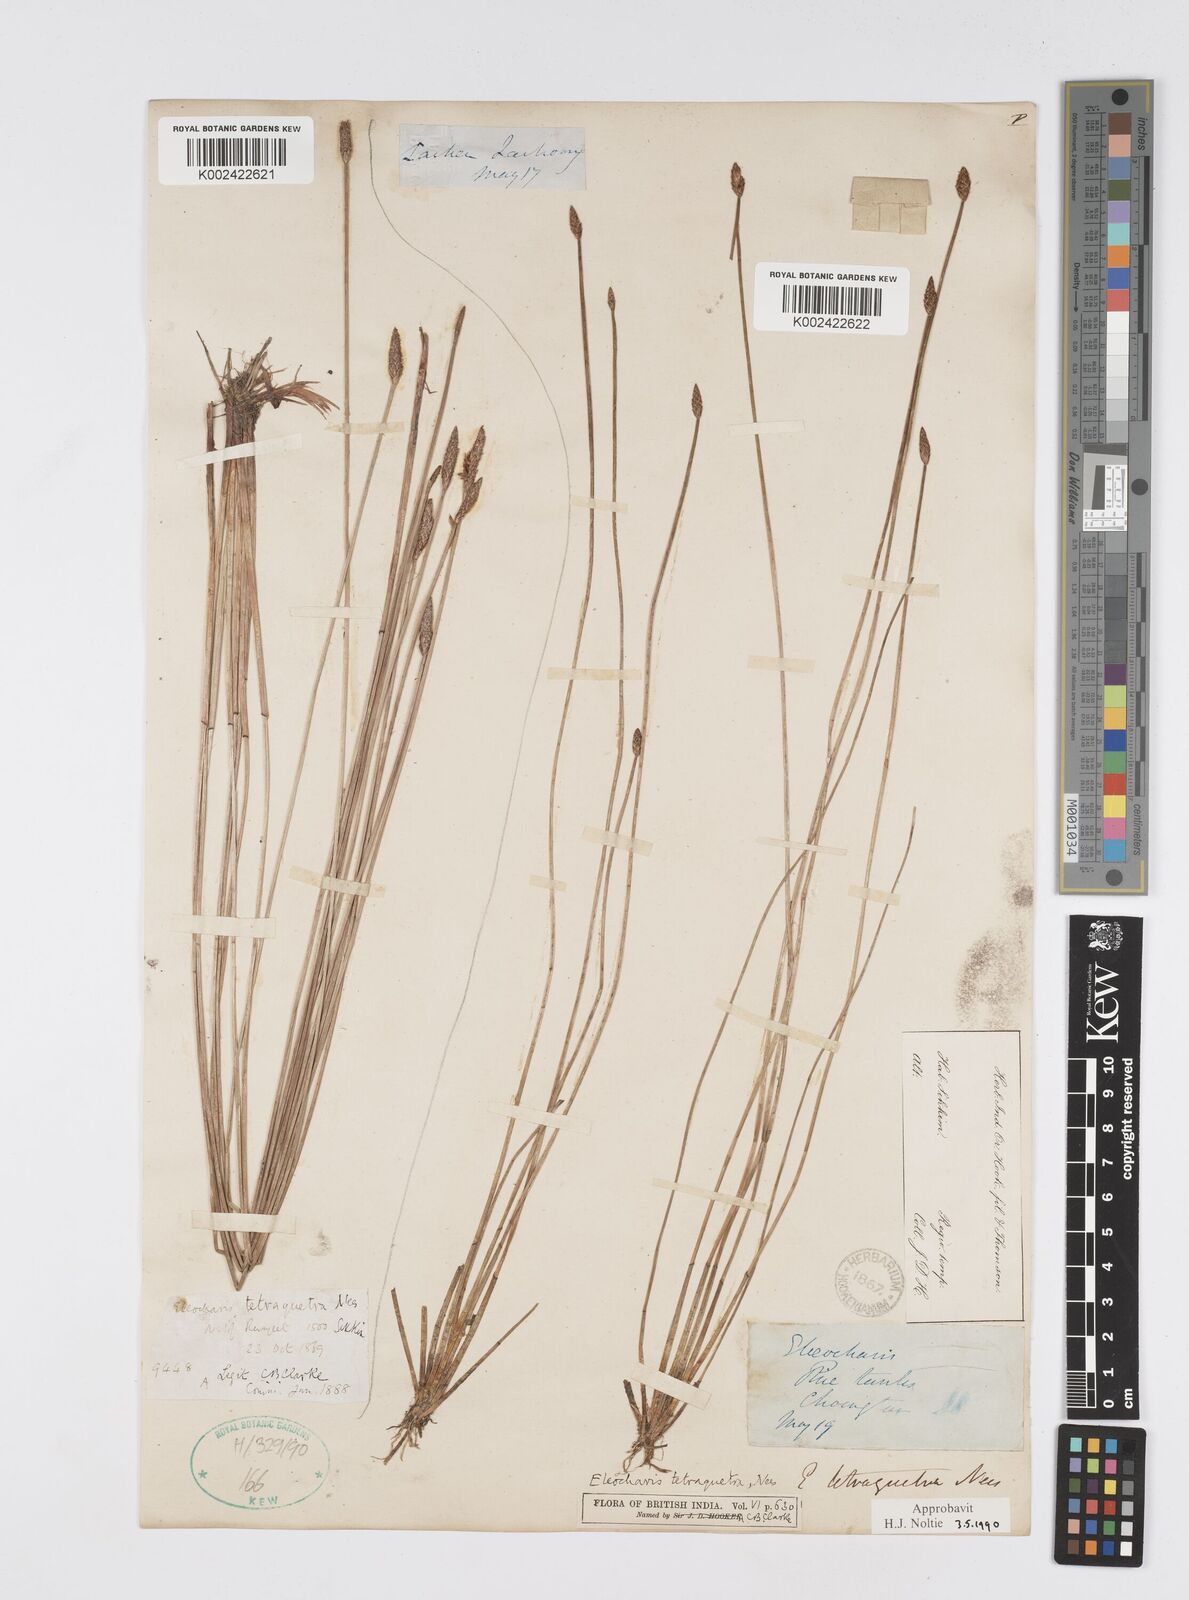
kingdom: Plantae
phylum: Tracheophyta
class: Liliopsida
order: Poales
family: Cyperaceae
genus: Eleocharis
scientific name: Eleocharis tetraquetra
